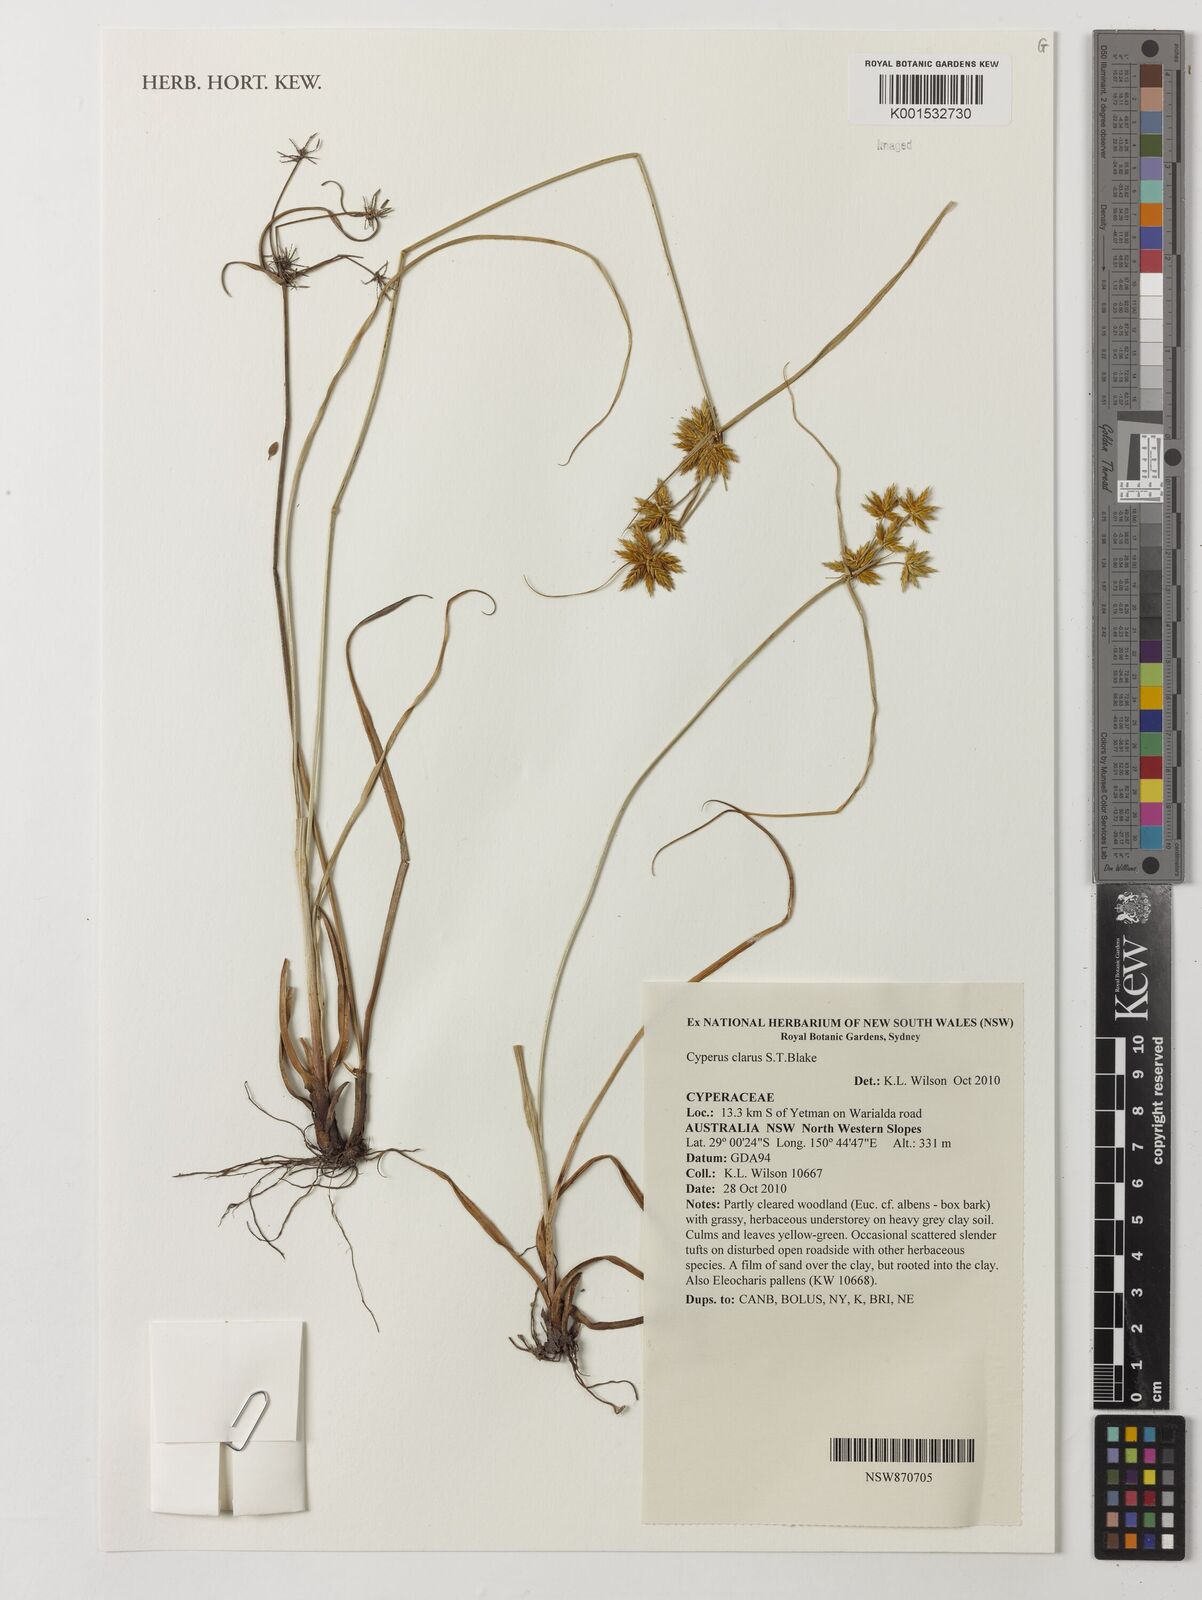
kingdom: Plantae
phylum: Tracheophyta
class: Liliopsida
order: Poales
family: Cyperaceae
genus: Cyperus
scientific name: Cyperus clarus
